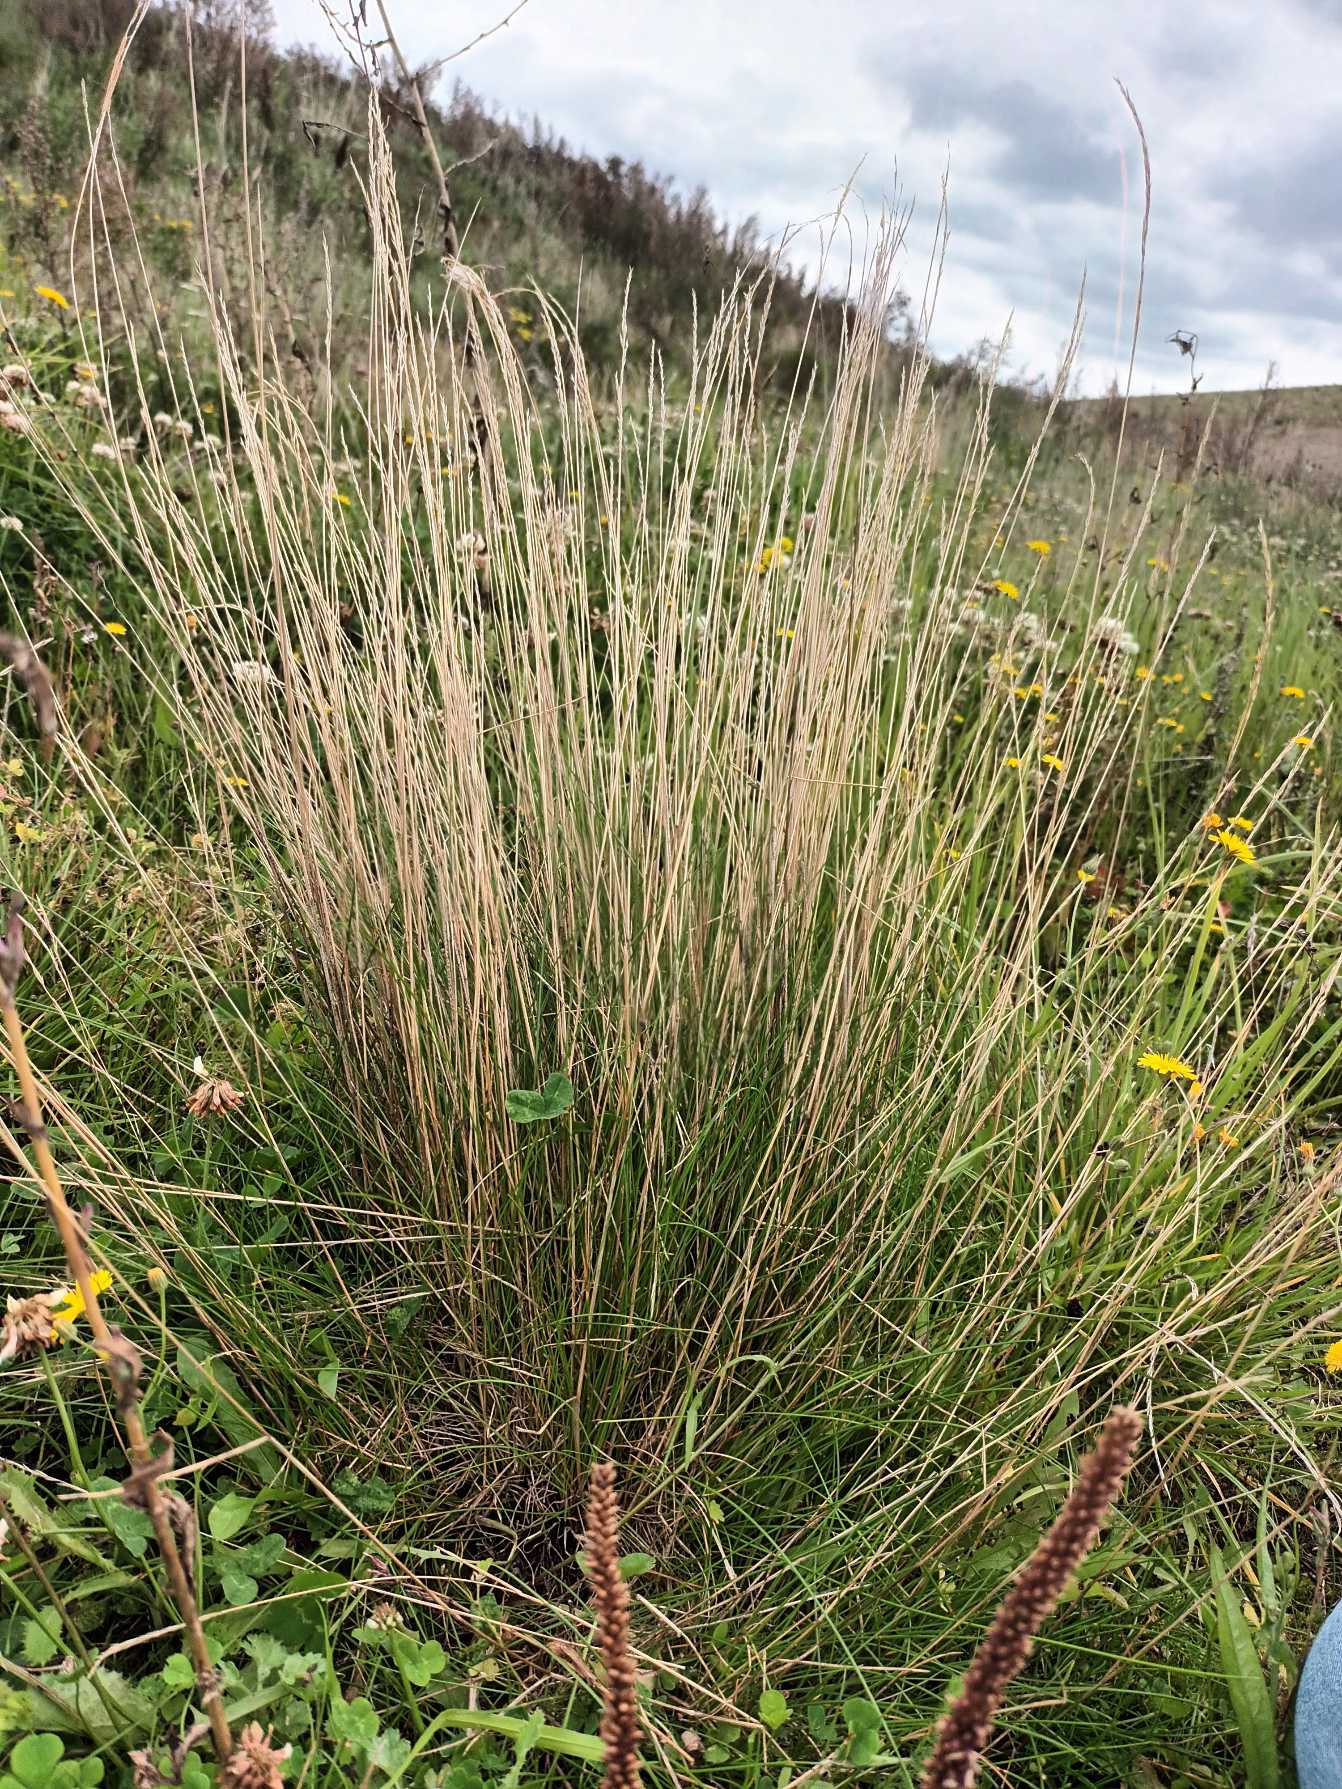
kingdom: Plantae
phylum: Tracheophyta
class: Liliopsida
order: Poales
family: Poaceae
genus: Festuca
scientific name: Festuca nigrescens
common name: Vej-svingel
